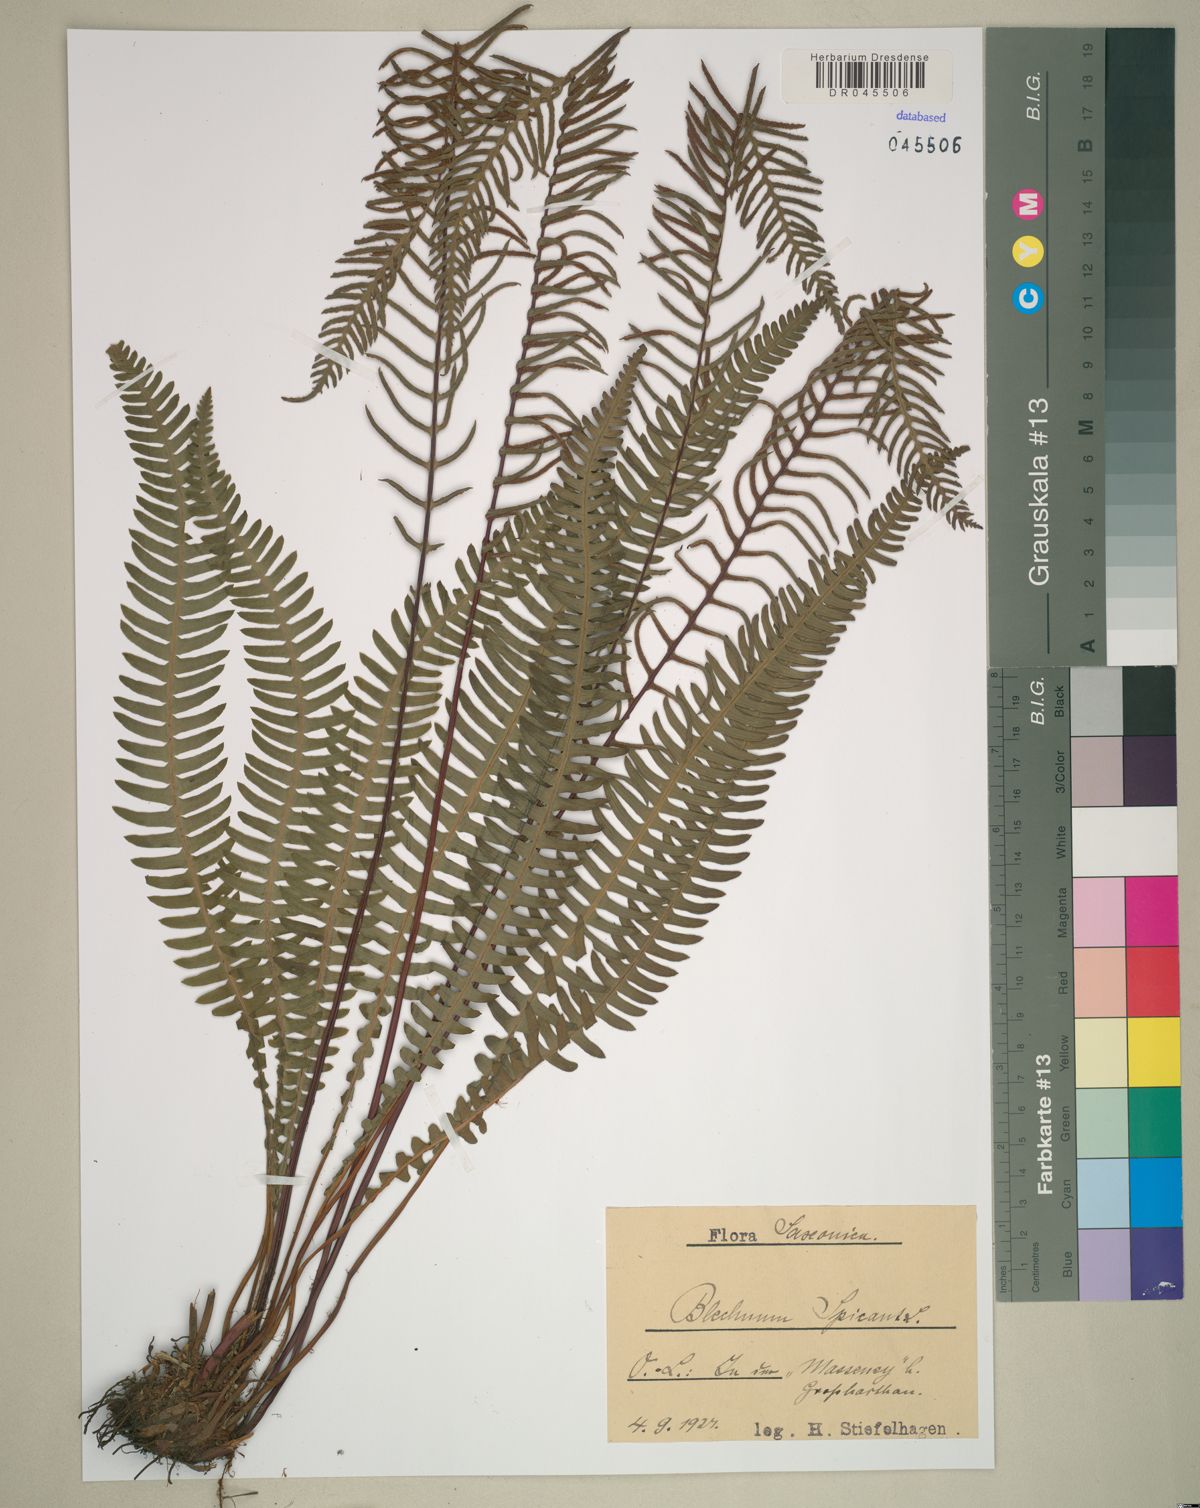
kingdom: Plantae
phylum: Tracheophyta
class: Polypodiopsida
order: Polypodiales
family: Blechnaceae
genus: Struthiopteris
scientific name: Struthiopteris spicant
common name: Deer fern
